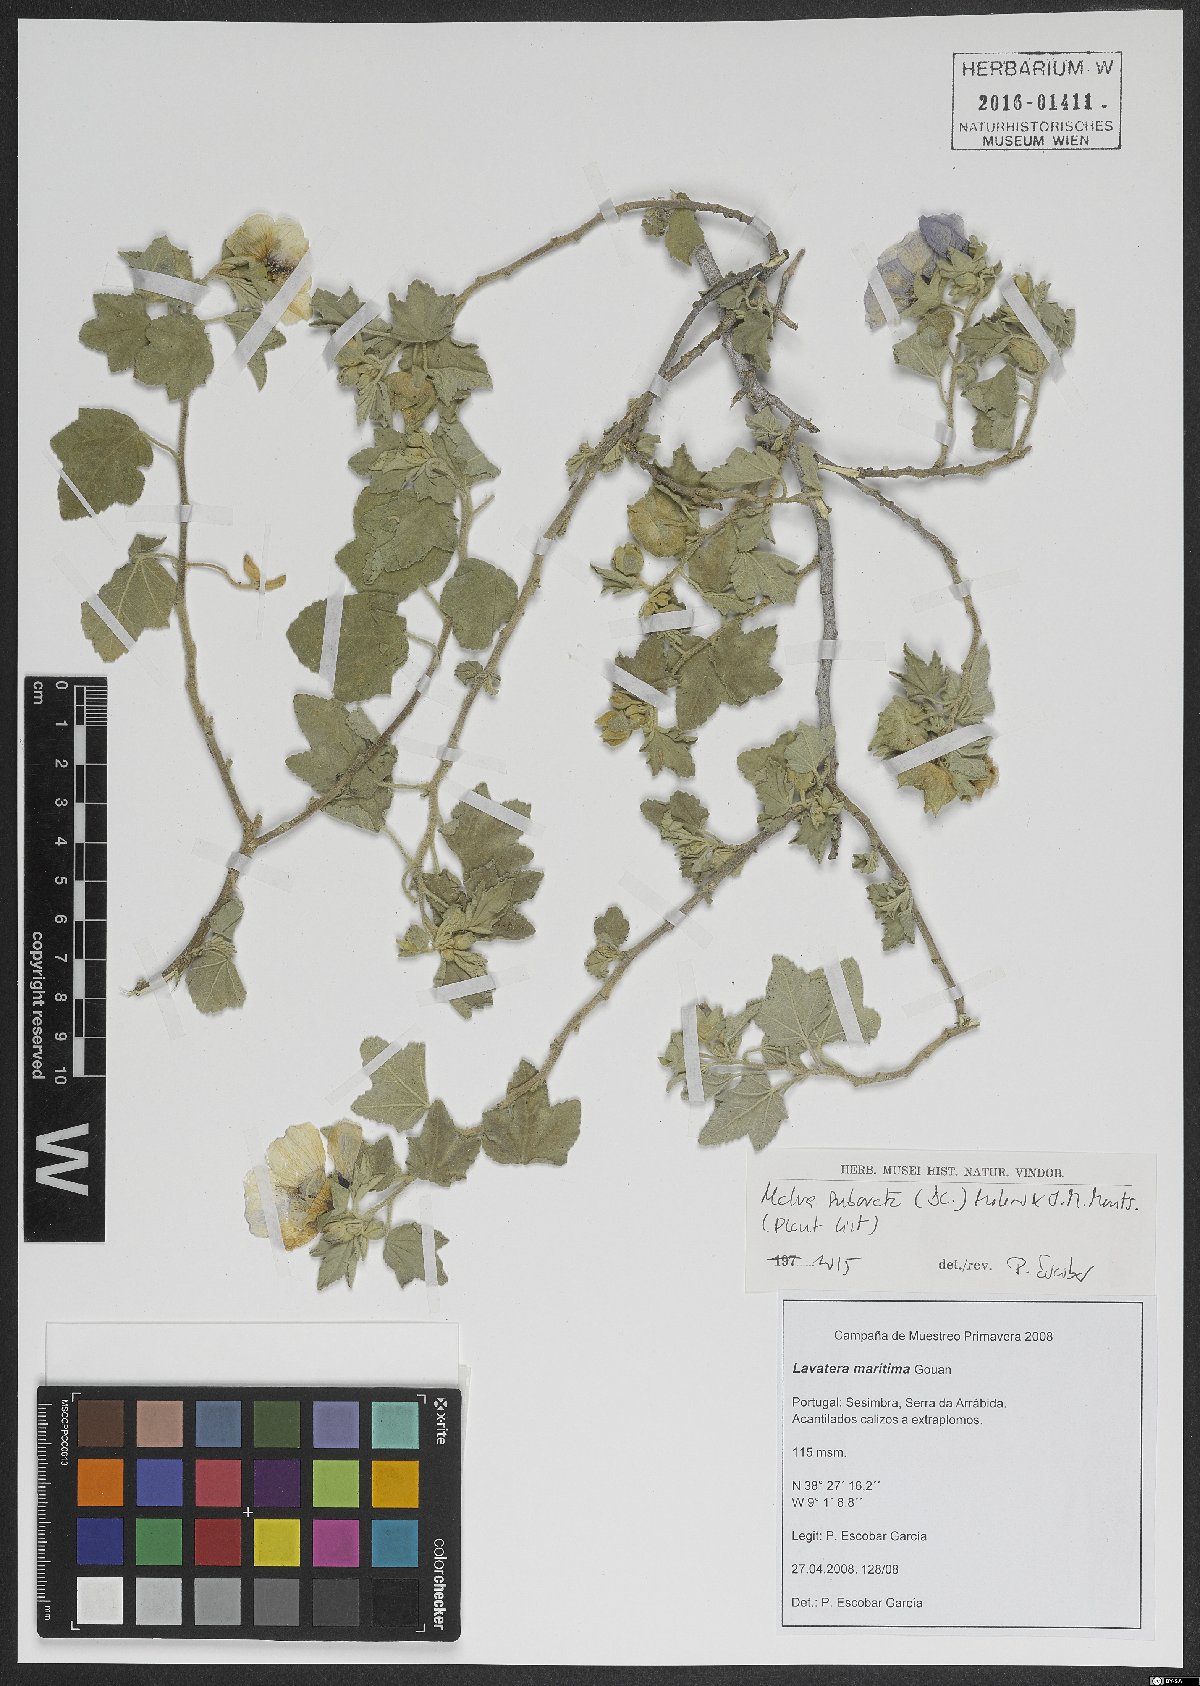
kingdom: Plantae
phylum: Tracheophyta
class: Magnoliopsida
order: Malvales
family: Malvaceae
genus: Malva
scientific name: Malva subovata
